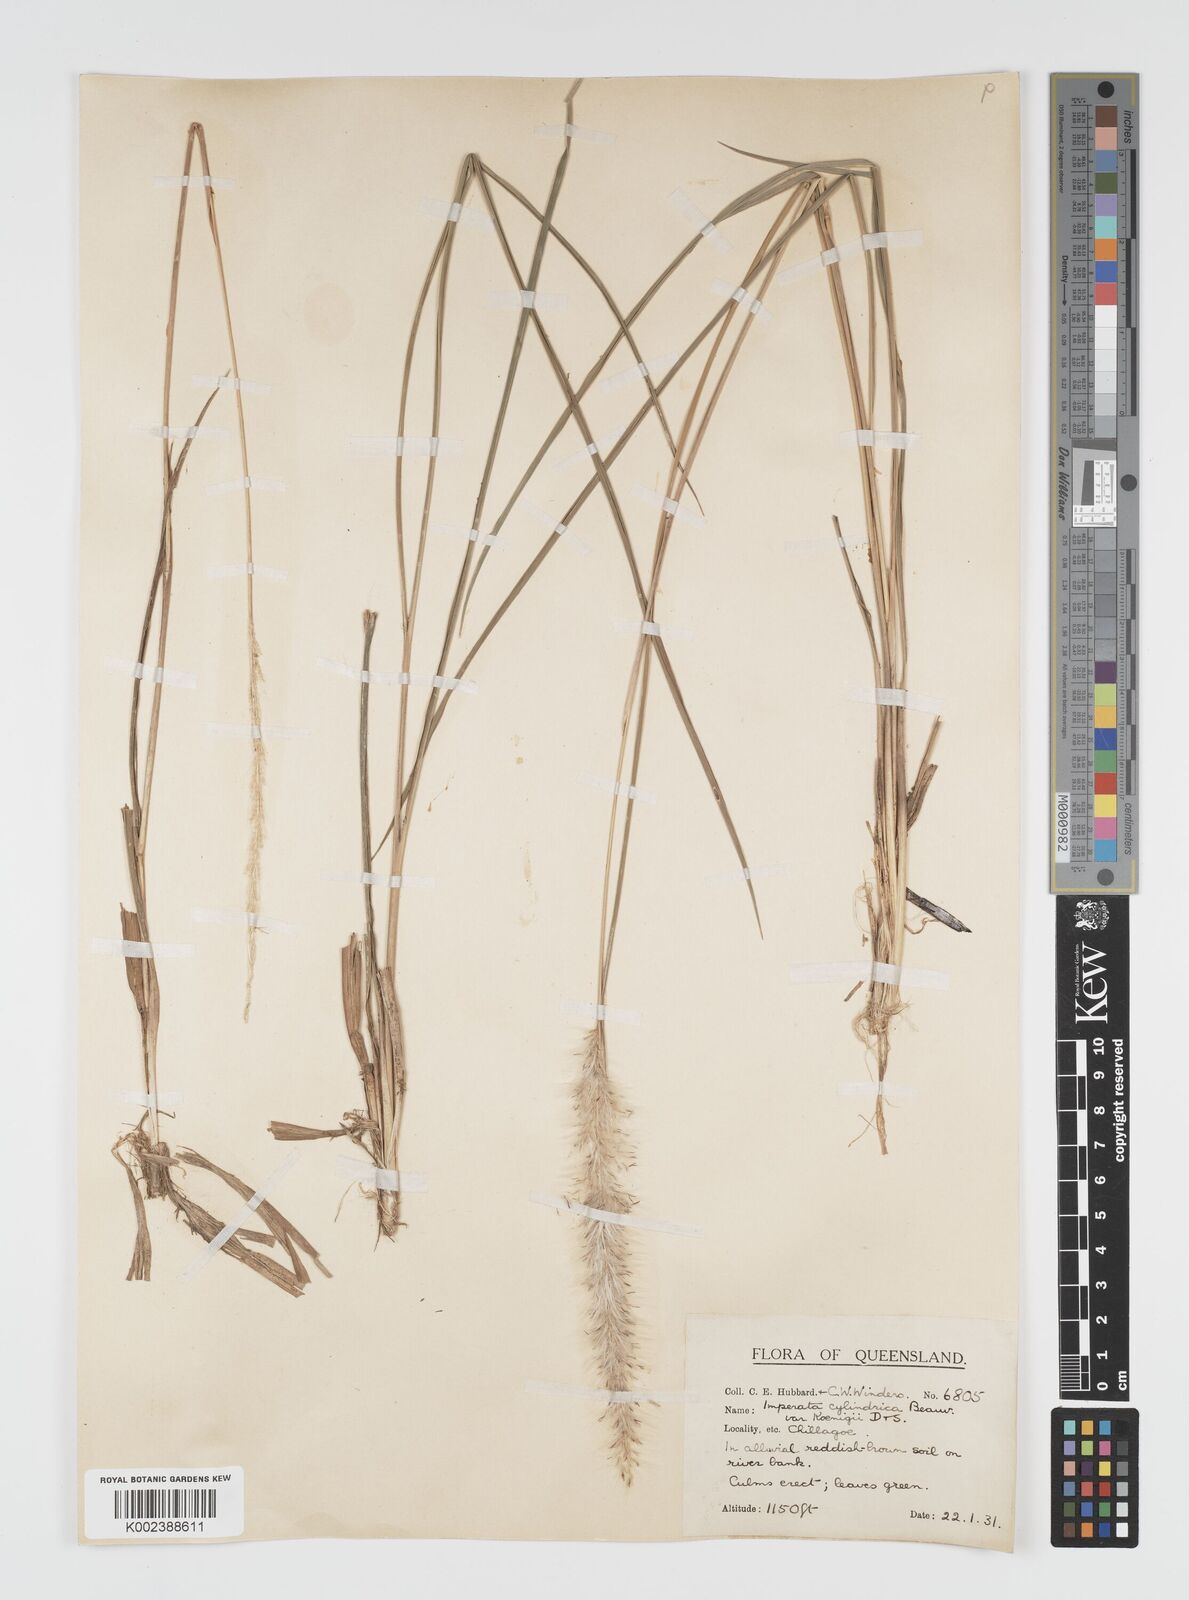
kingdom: Plantae
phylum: Tracheophyta
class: Liliopsida
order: Poales
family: Poaceae
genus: Imperata
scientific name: Imperata cylindrica
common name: Cogongrass
